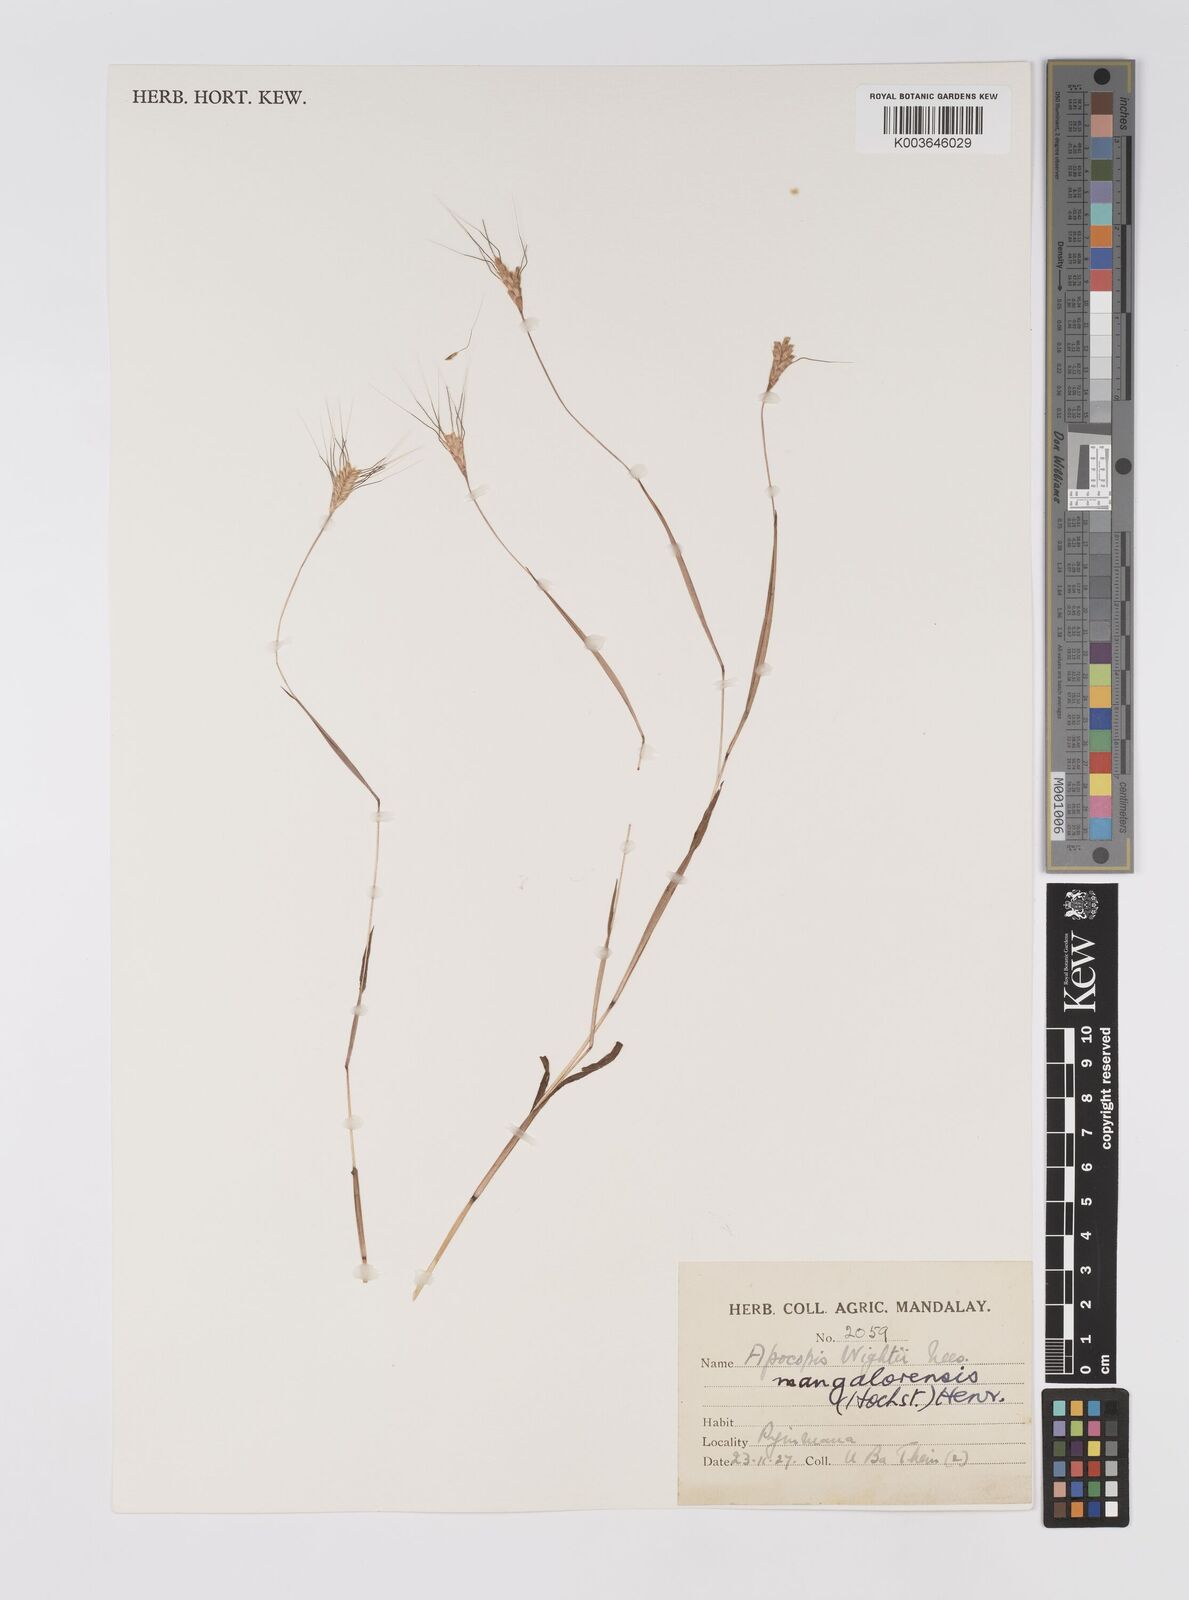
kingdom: Plantae
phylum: Tracheophyta
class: Liliopsida
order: Poales
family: Poaceae
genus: Apocopis
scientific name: Apocopis mangalorensis
